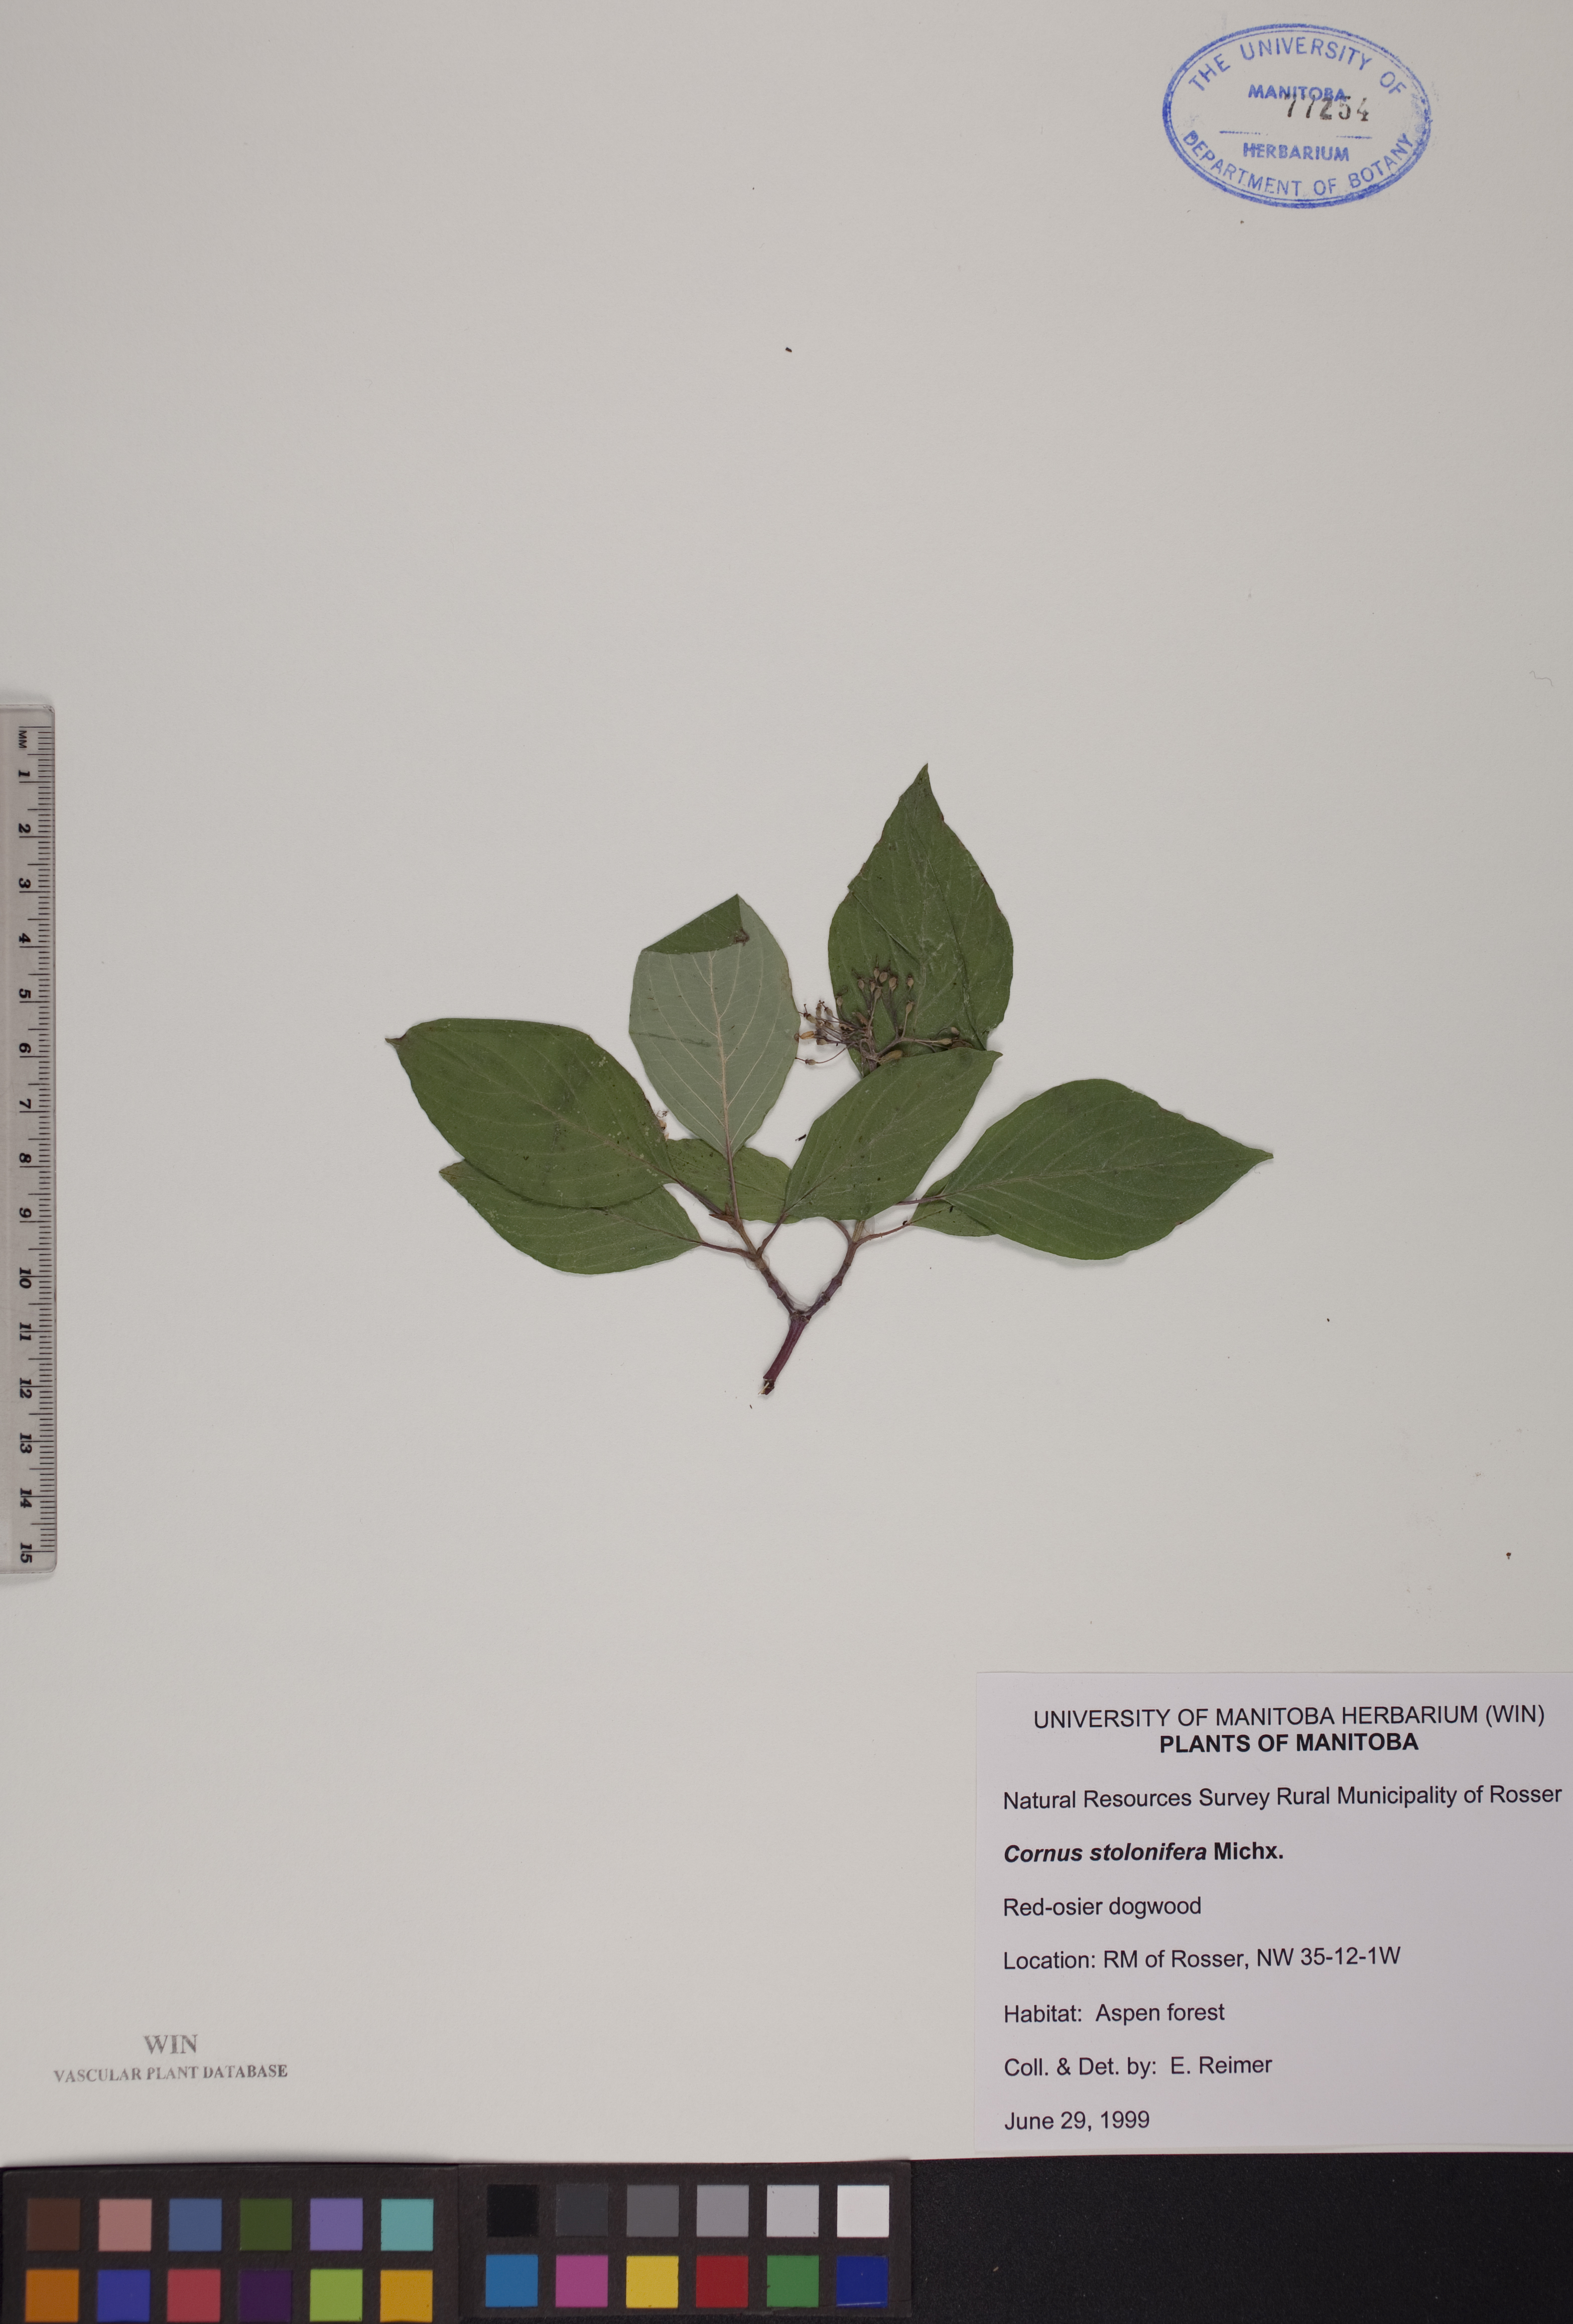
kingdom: Plantae
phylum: Tracheophyta
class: Magnoliopsida
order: Cornales
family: Cornaceae
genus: Cornus
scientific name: Cornus sericea
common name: Red-osier dogwood
